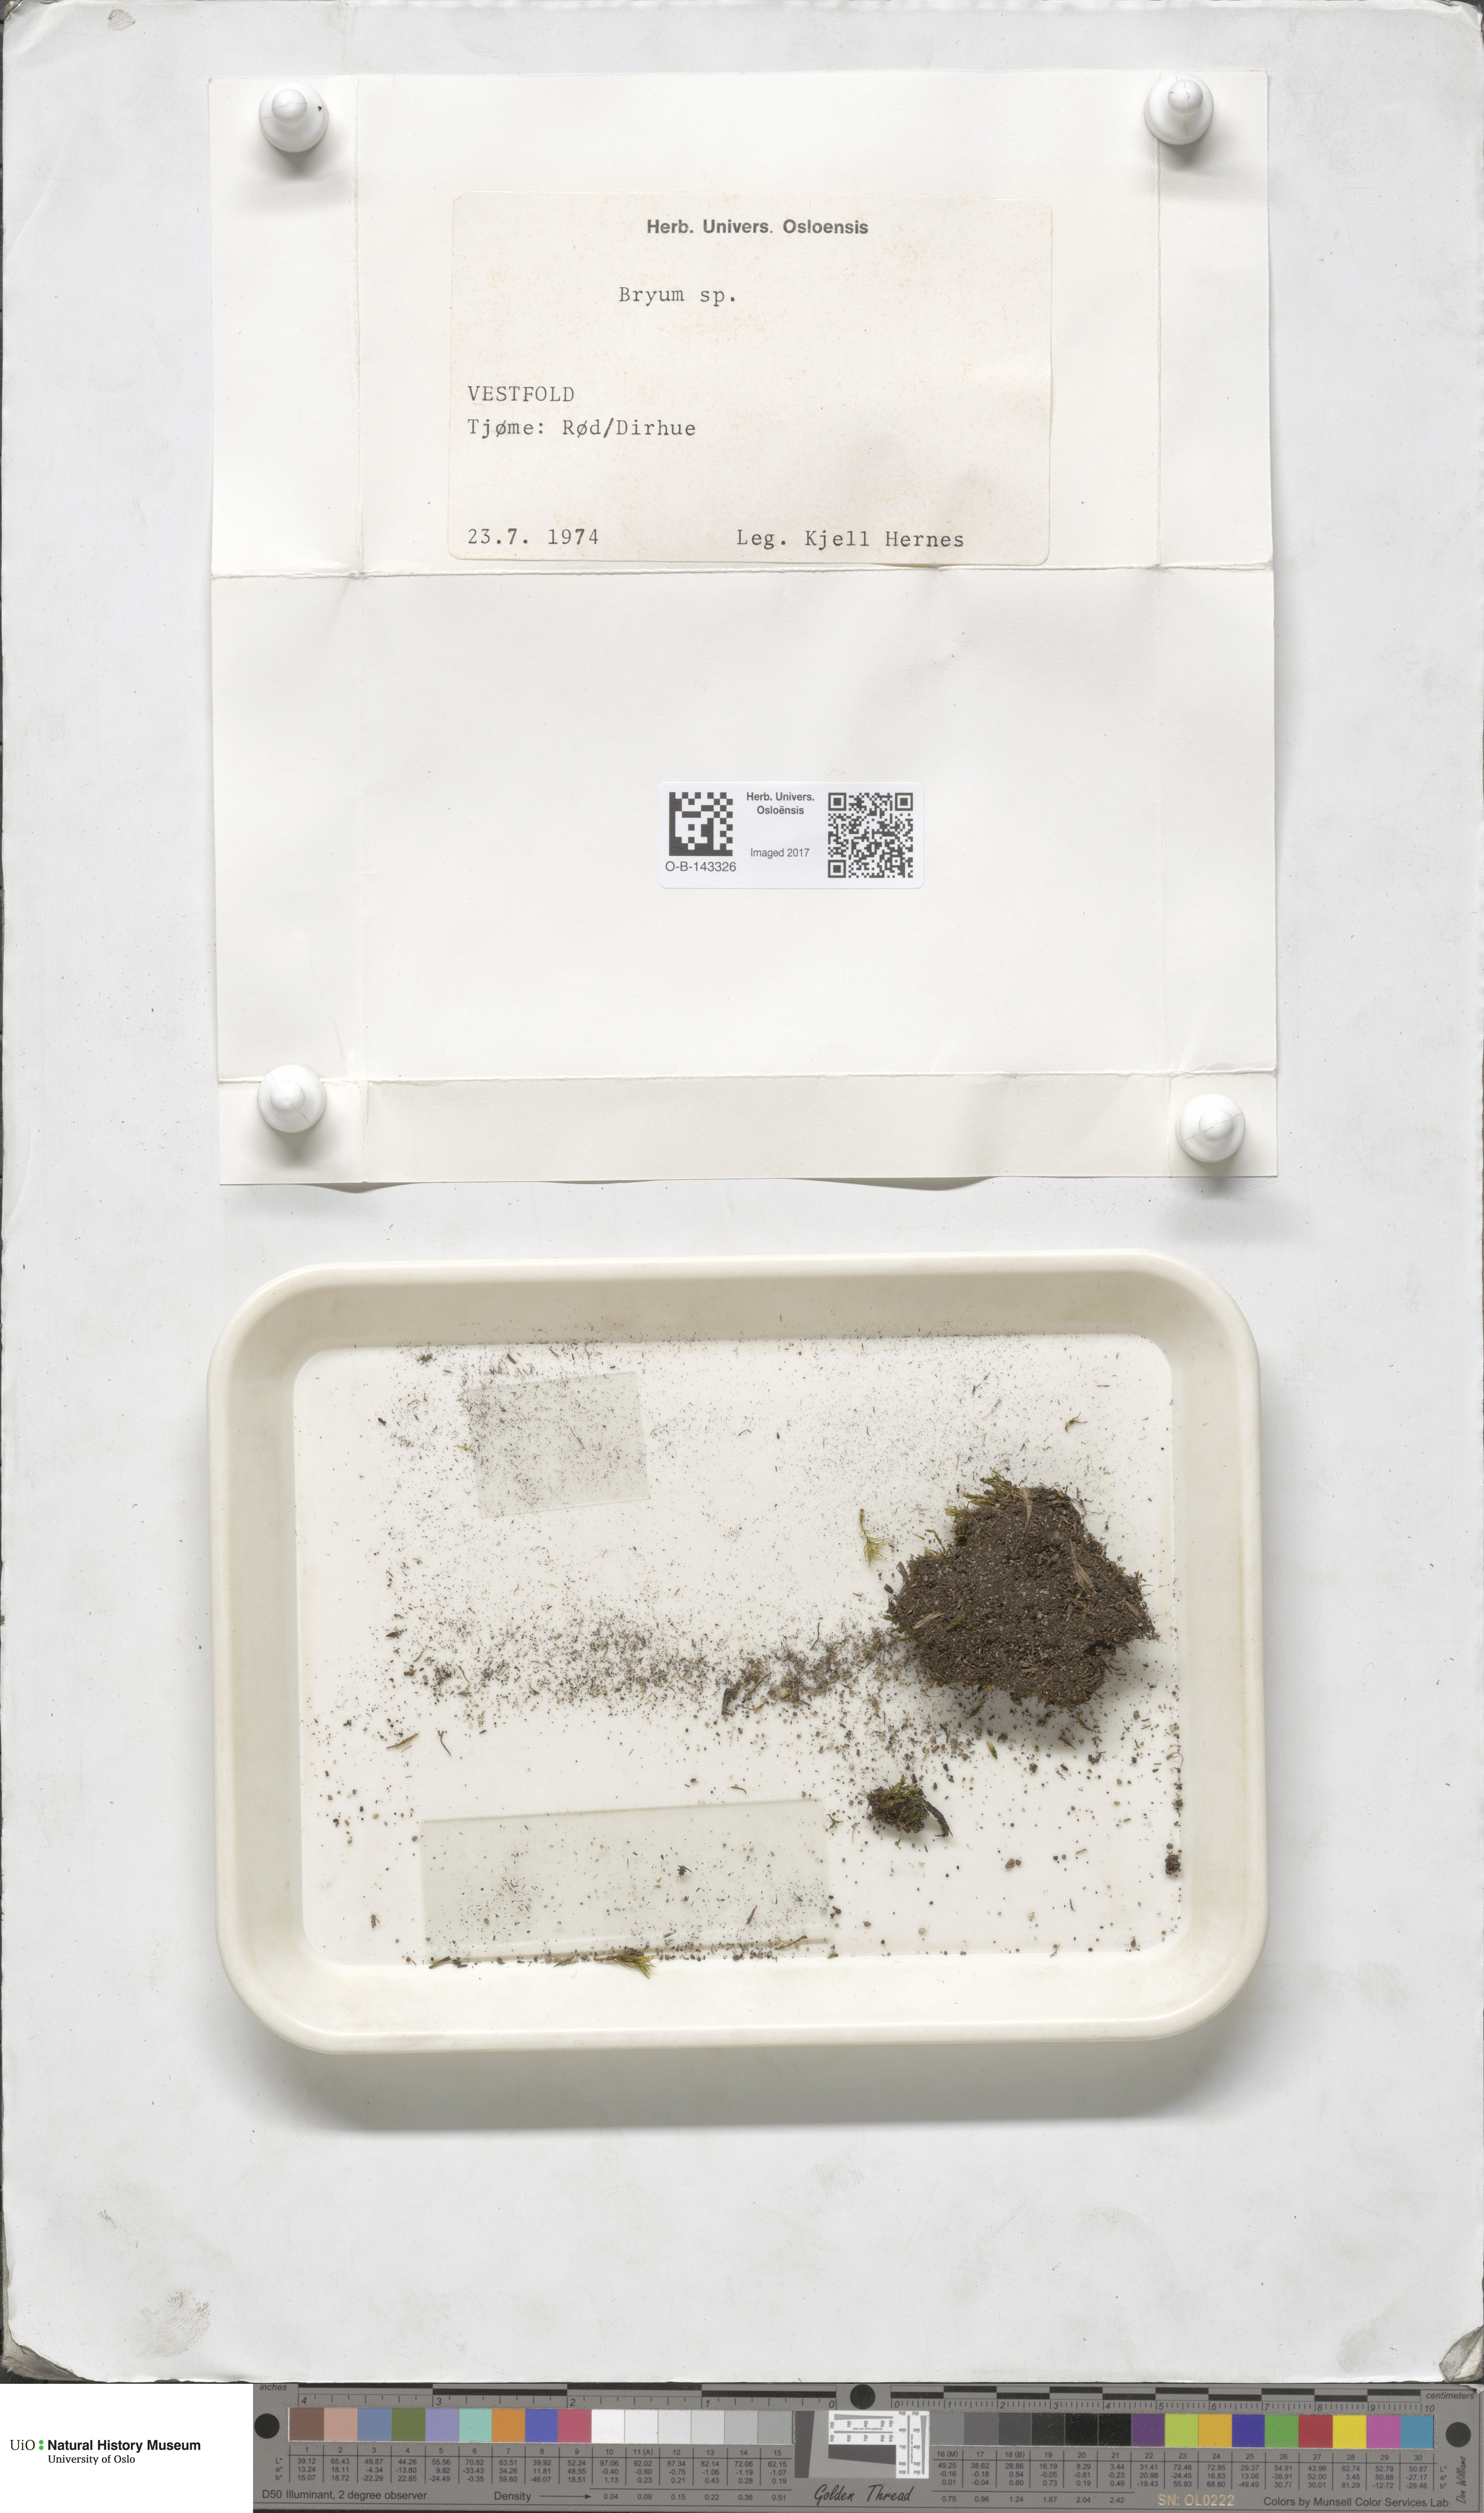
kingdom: Plantae
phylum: Bryophyta
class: Bryopsida
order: Bryales
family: Bryaceae
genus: Bryum
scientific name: Bryum
